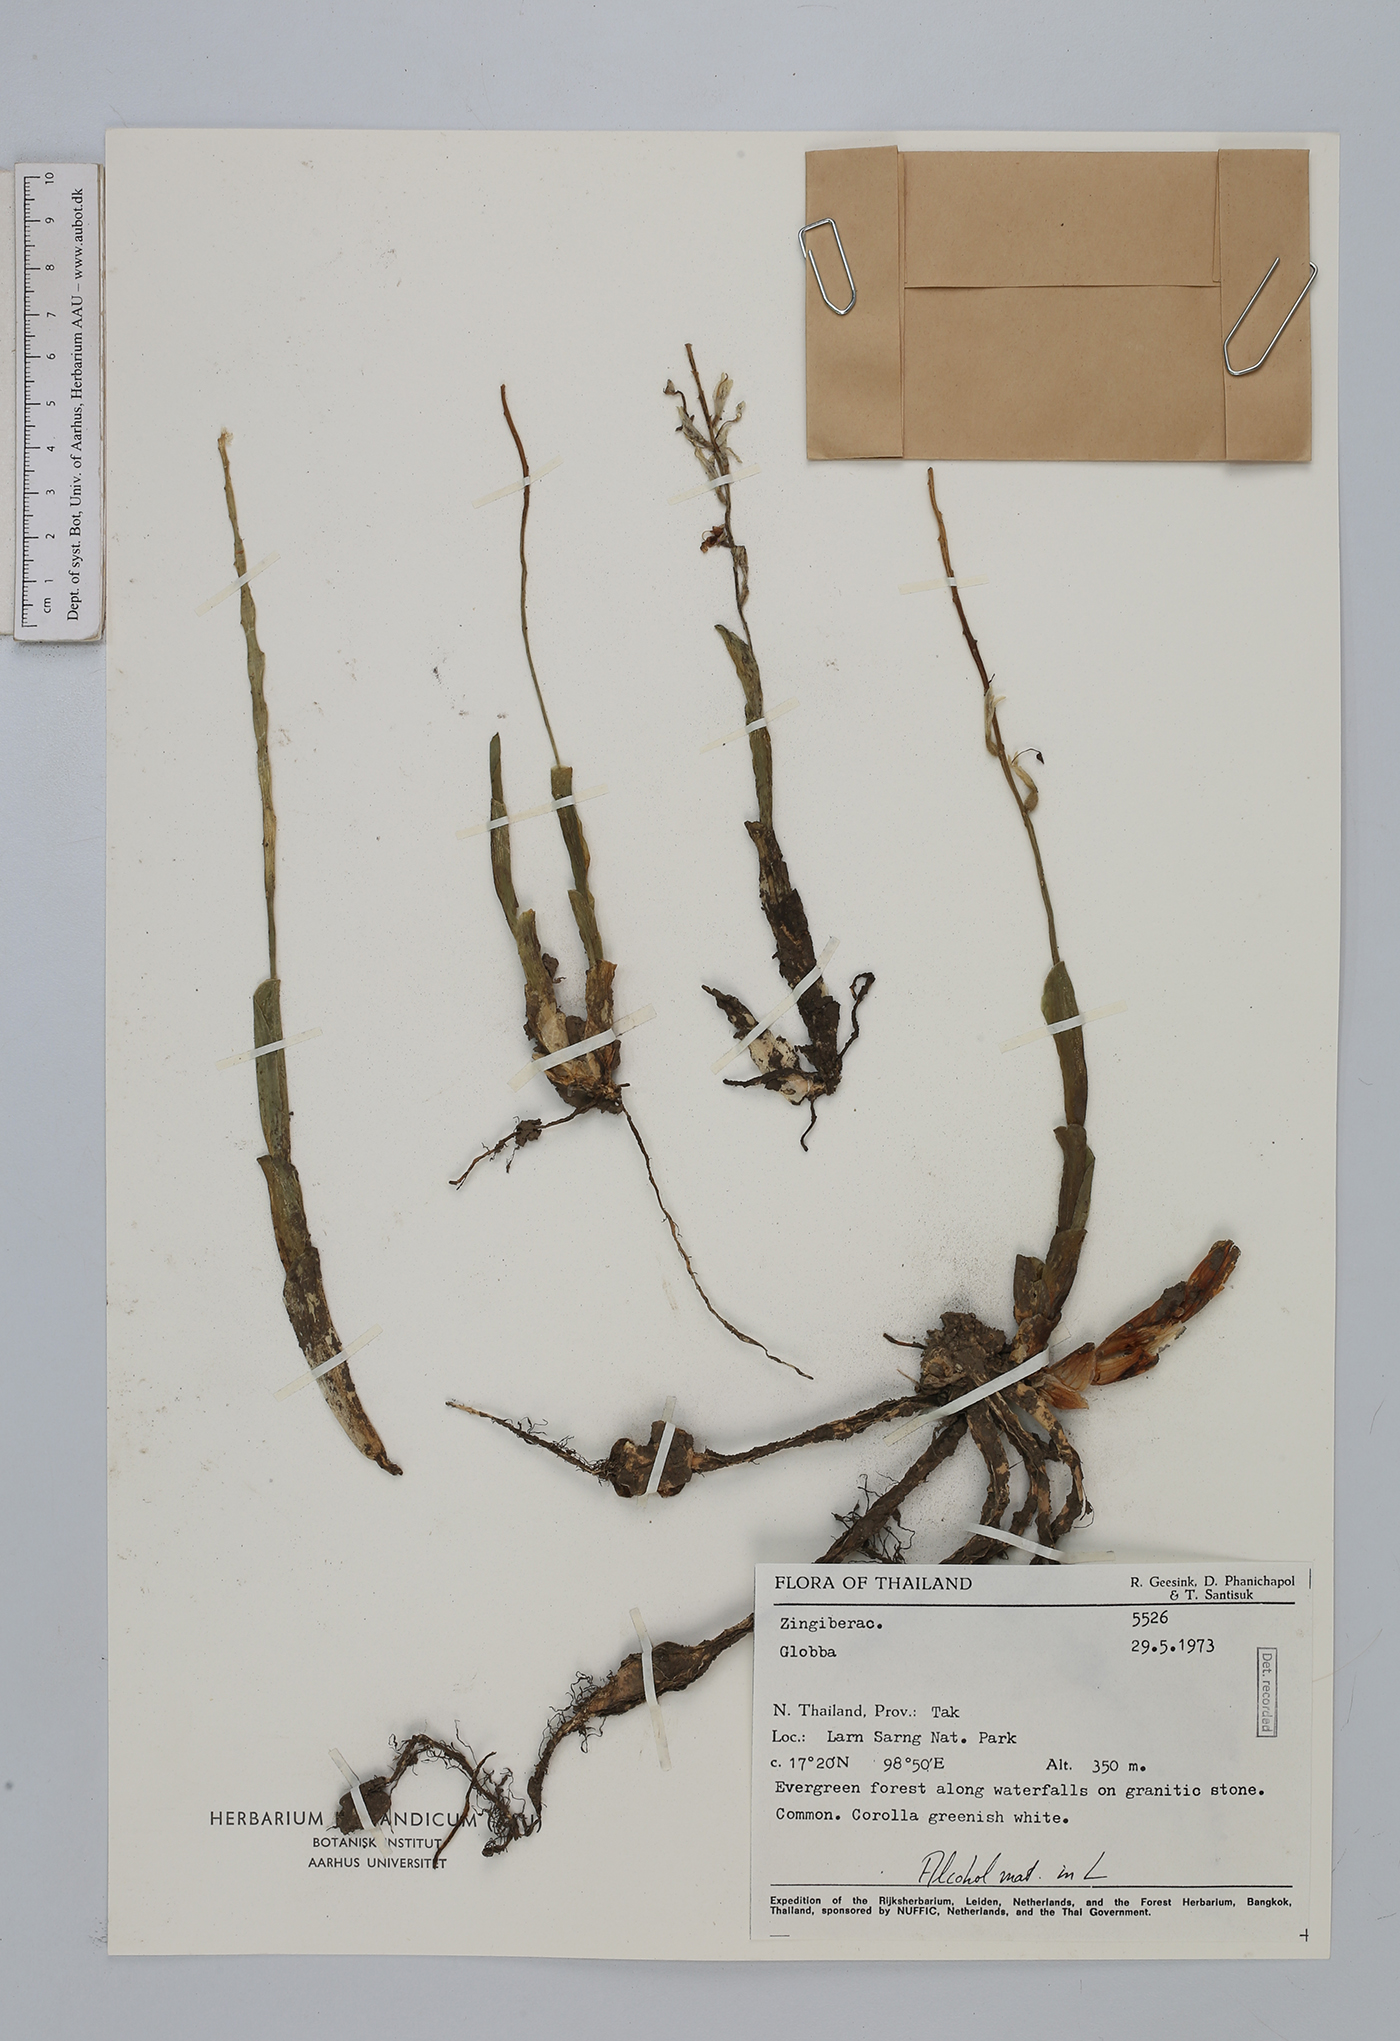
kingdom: Plantae
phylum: Tracheophyta
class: Liliopsida
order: Zingiberales
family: Zingiberaceae
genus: Gagnepainia
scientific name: Gagnepainia
